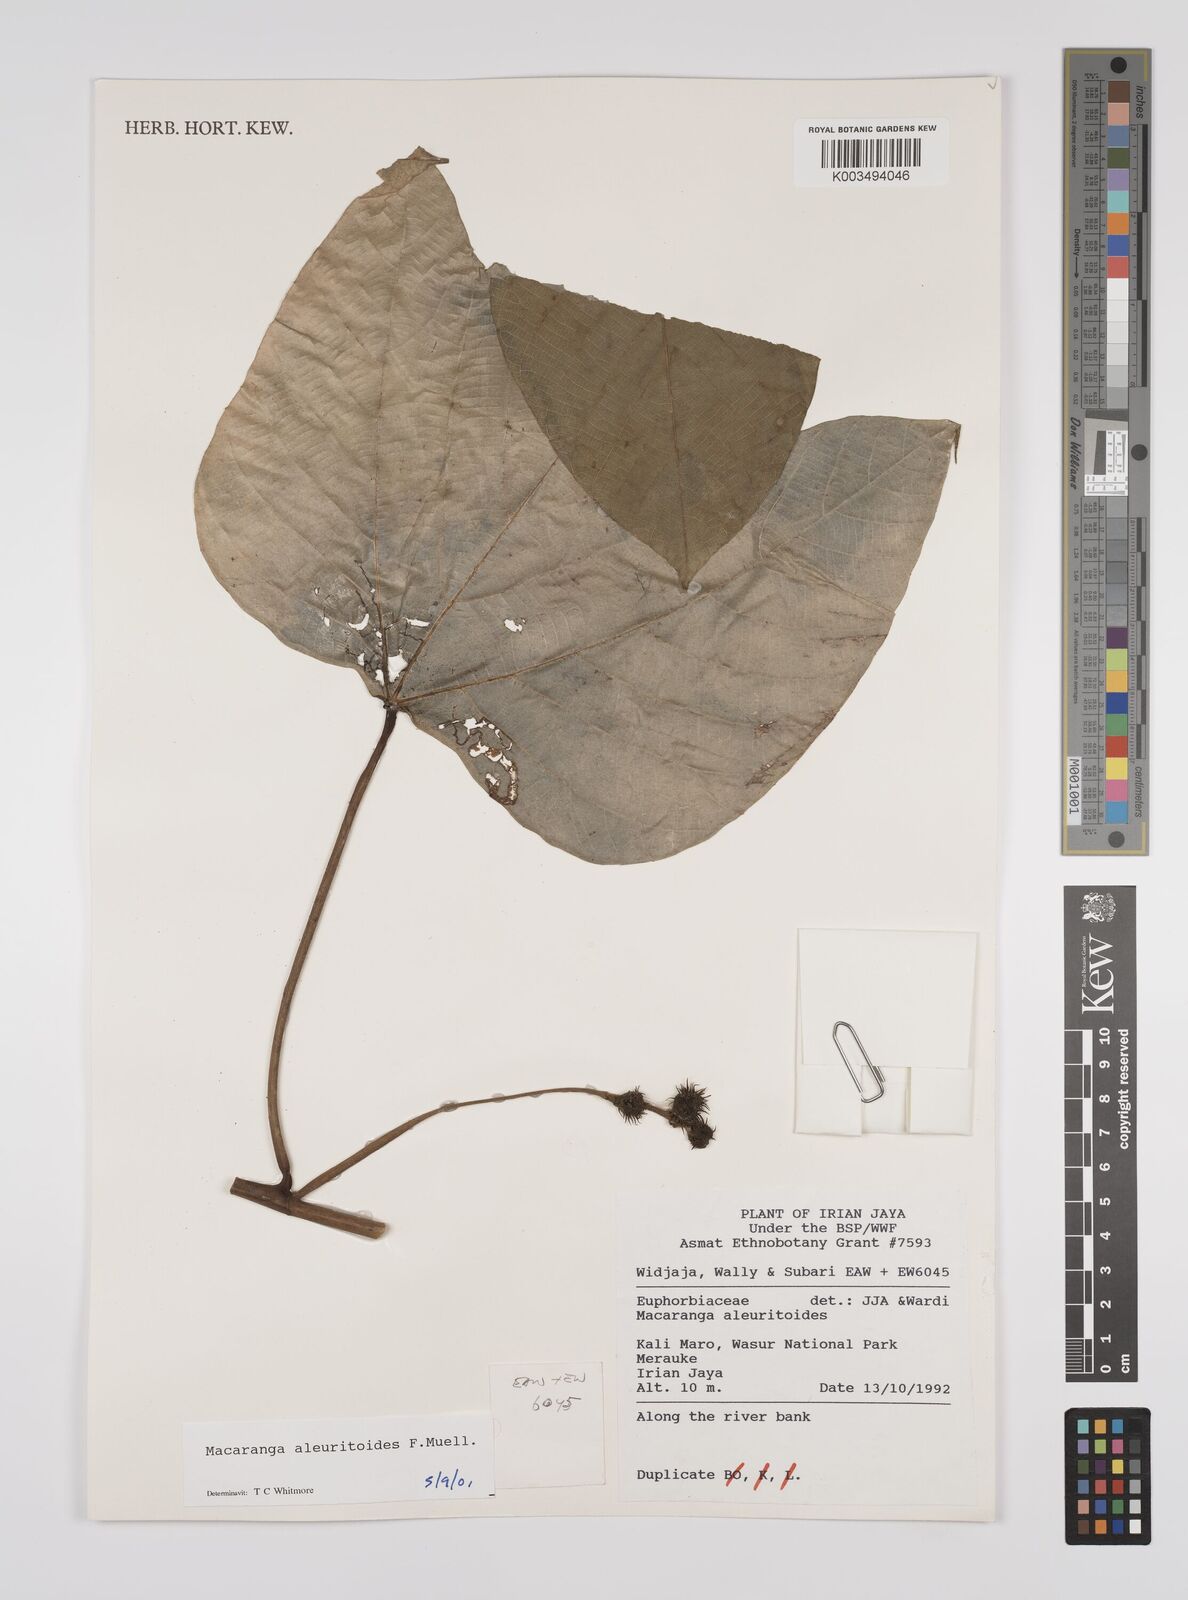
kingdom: Plantae
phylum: Tracheophyta
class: Magnoliopsida
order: Malpighiales
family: Euphorbiaceae
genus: Macaranga
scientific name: Macaranga aleuritoides
